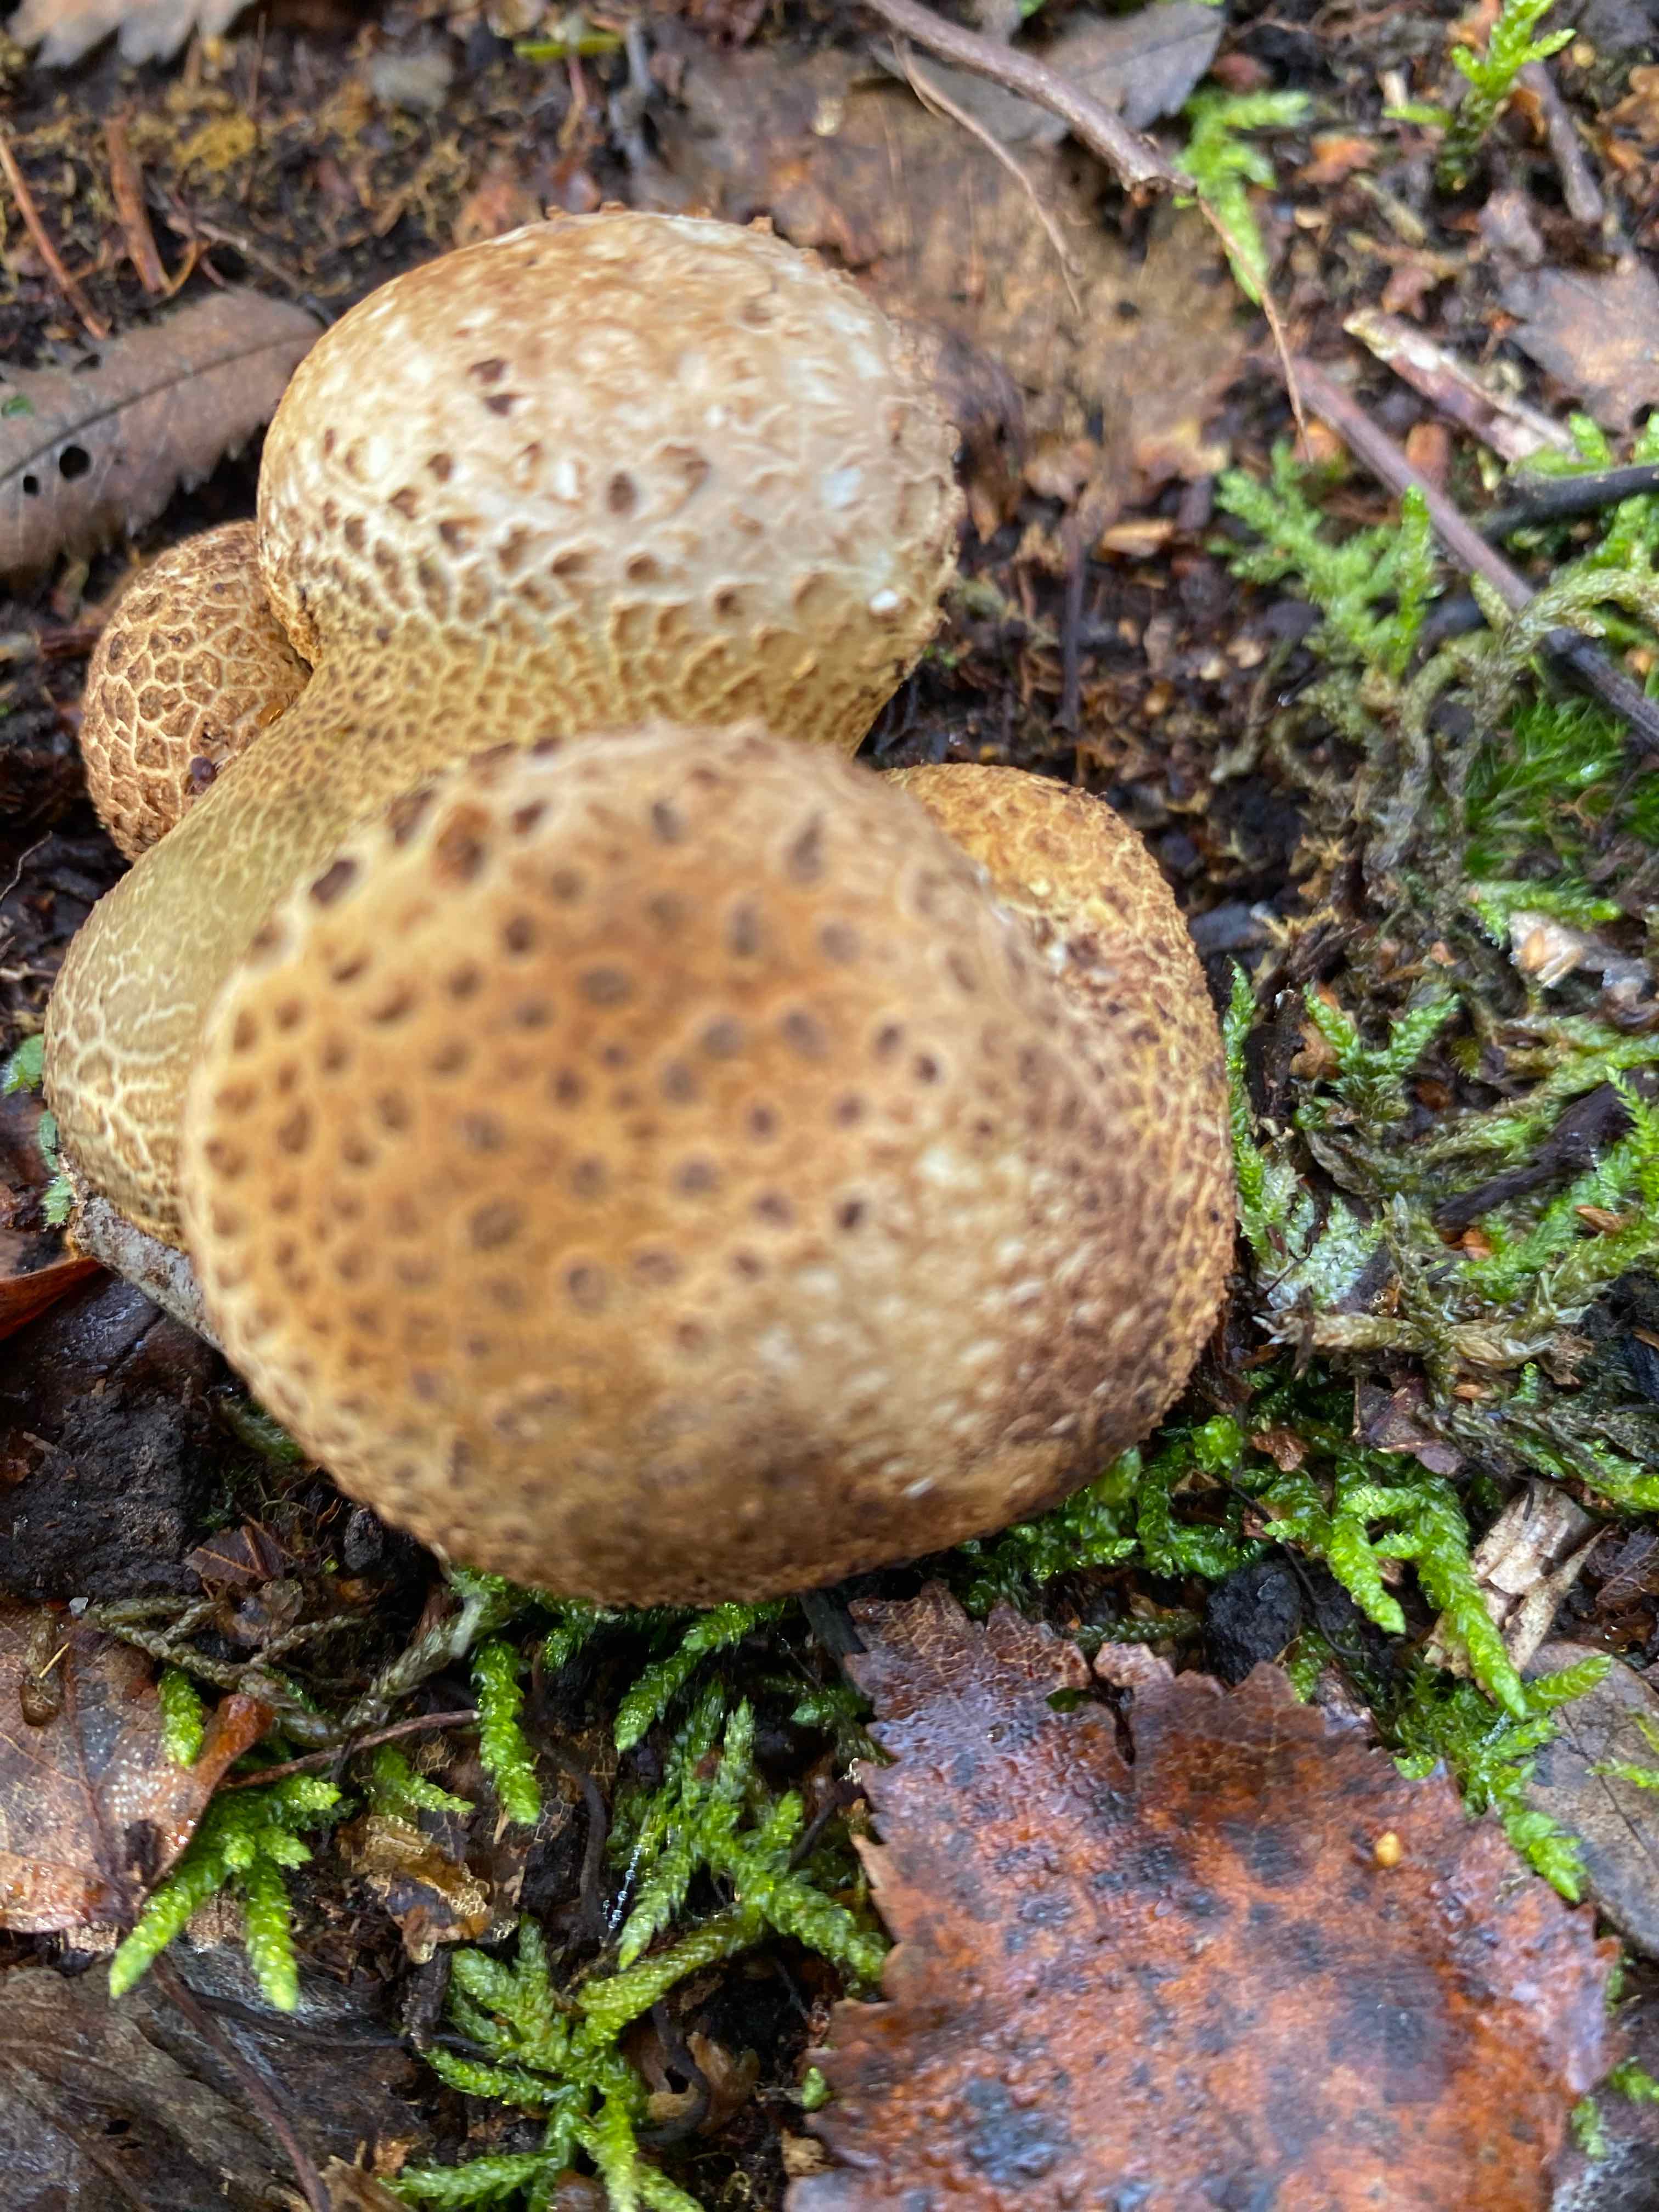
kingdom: Fungi
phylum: Basidiomycota
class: Agaricomycetes
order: Boletales
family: Sclerodermataceae
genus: Scleroderma
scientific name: Scleroderma citrinum
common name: almindelig bruskbold
